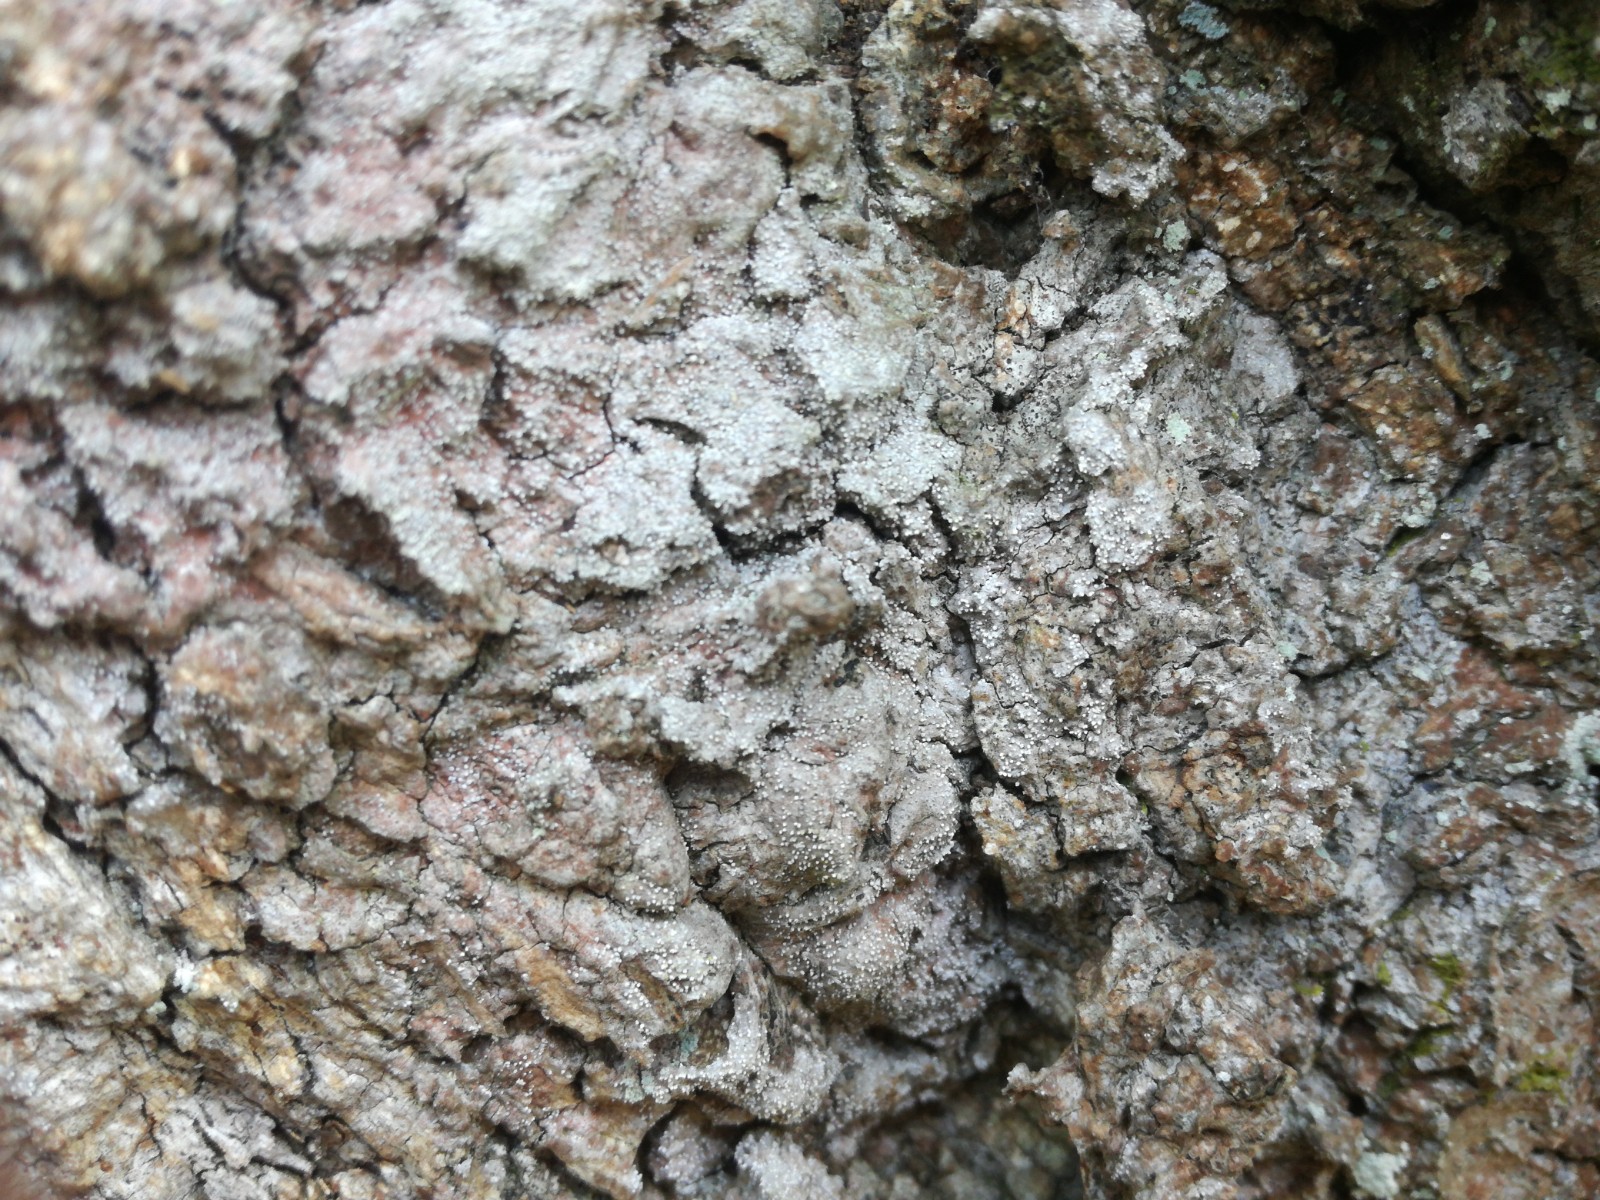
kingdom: Fungi
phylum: Ascomycota
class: Arthoniomycetes
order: Arthoniales
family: Opegraphaceae
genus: Opegrapha
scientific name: Opegrapha vermicellifera
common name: nåleprikket bogstavlav
